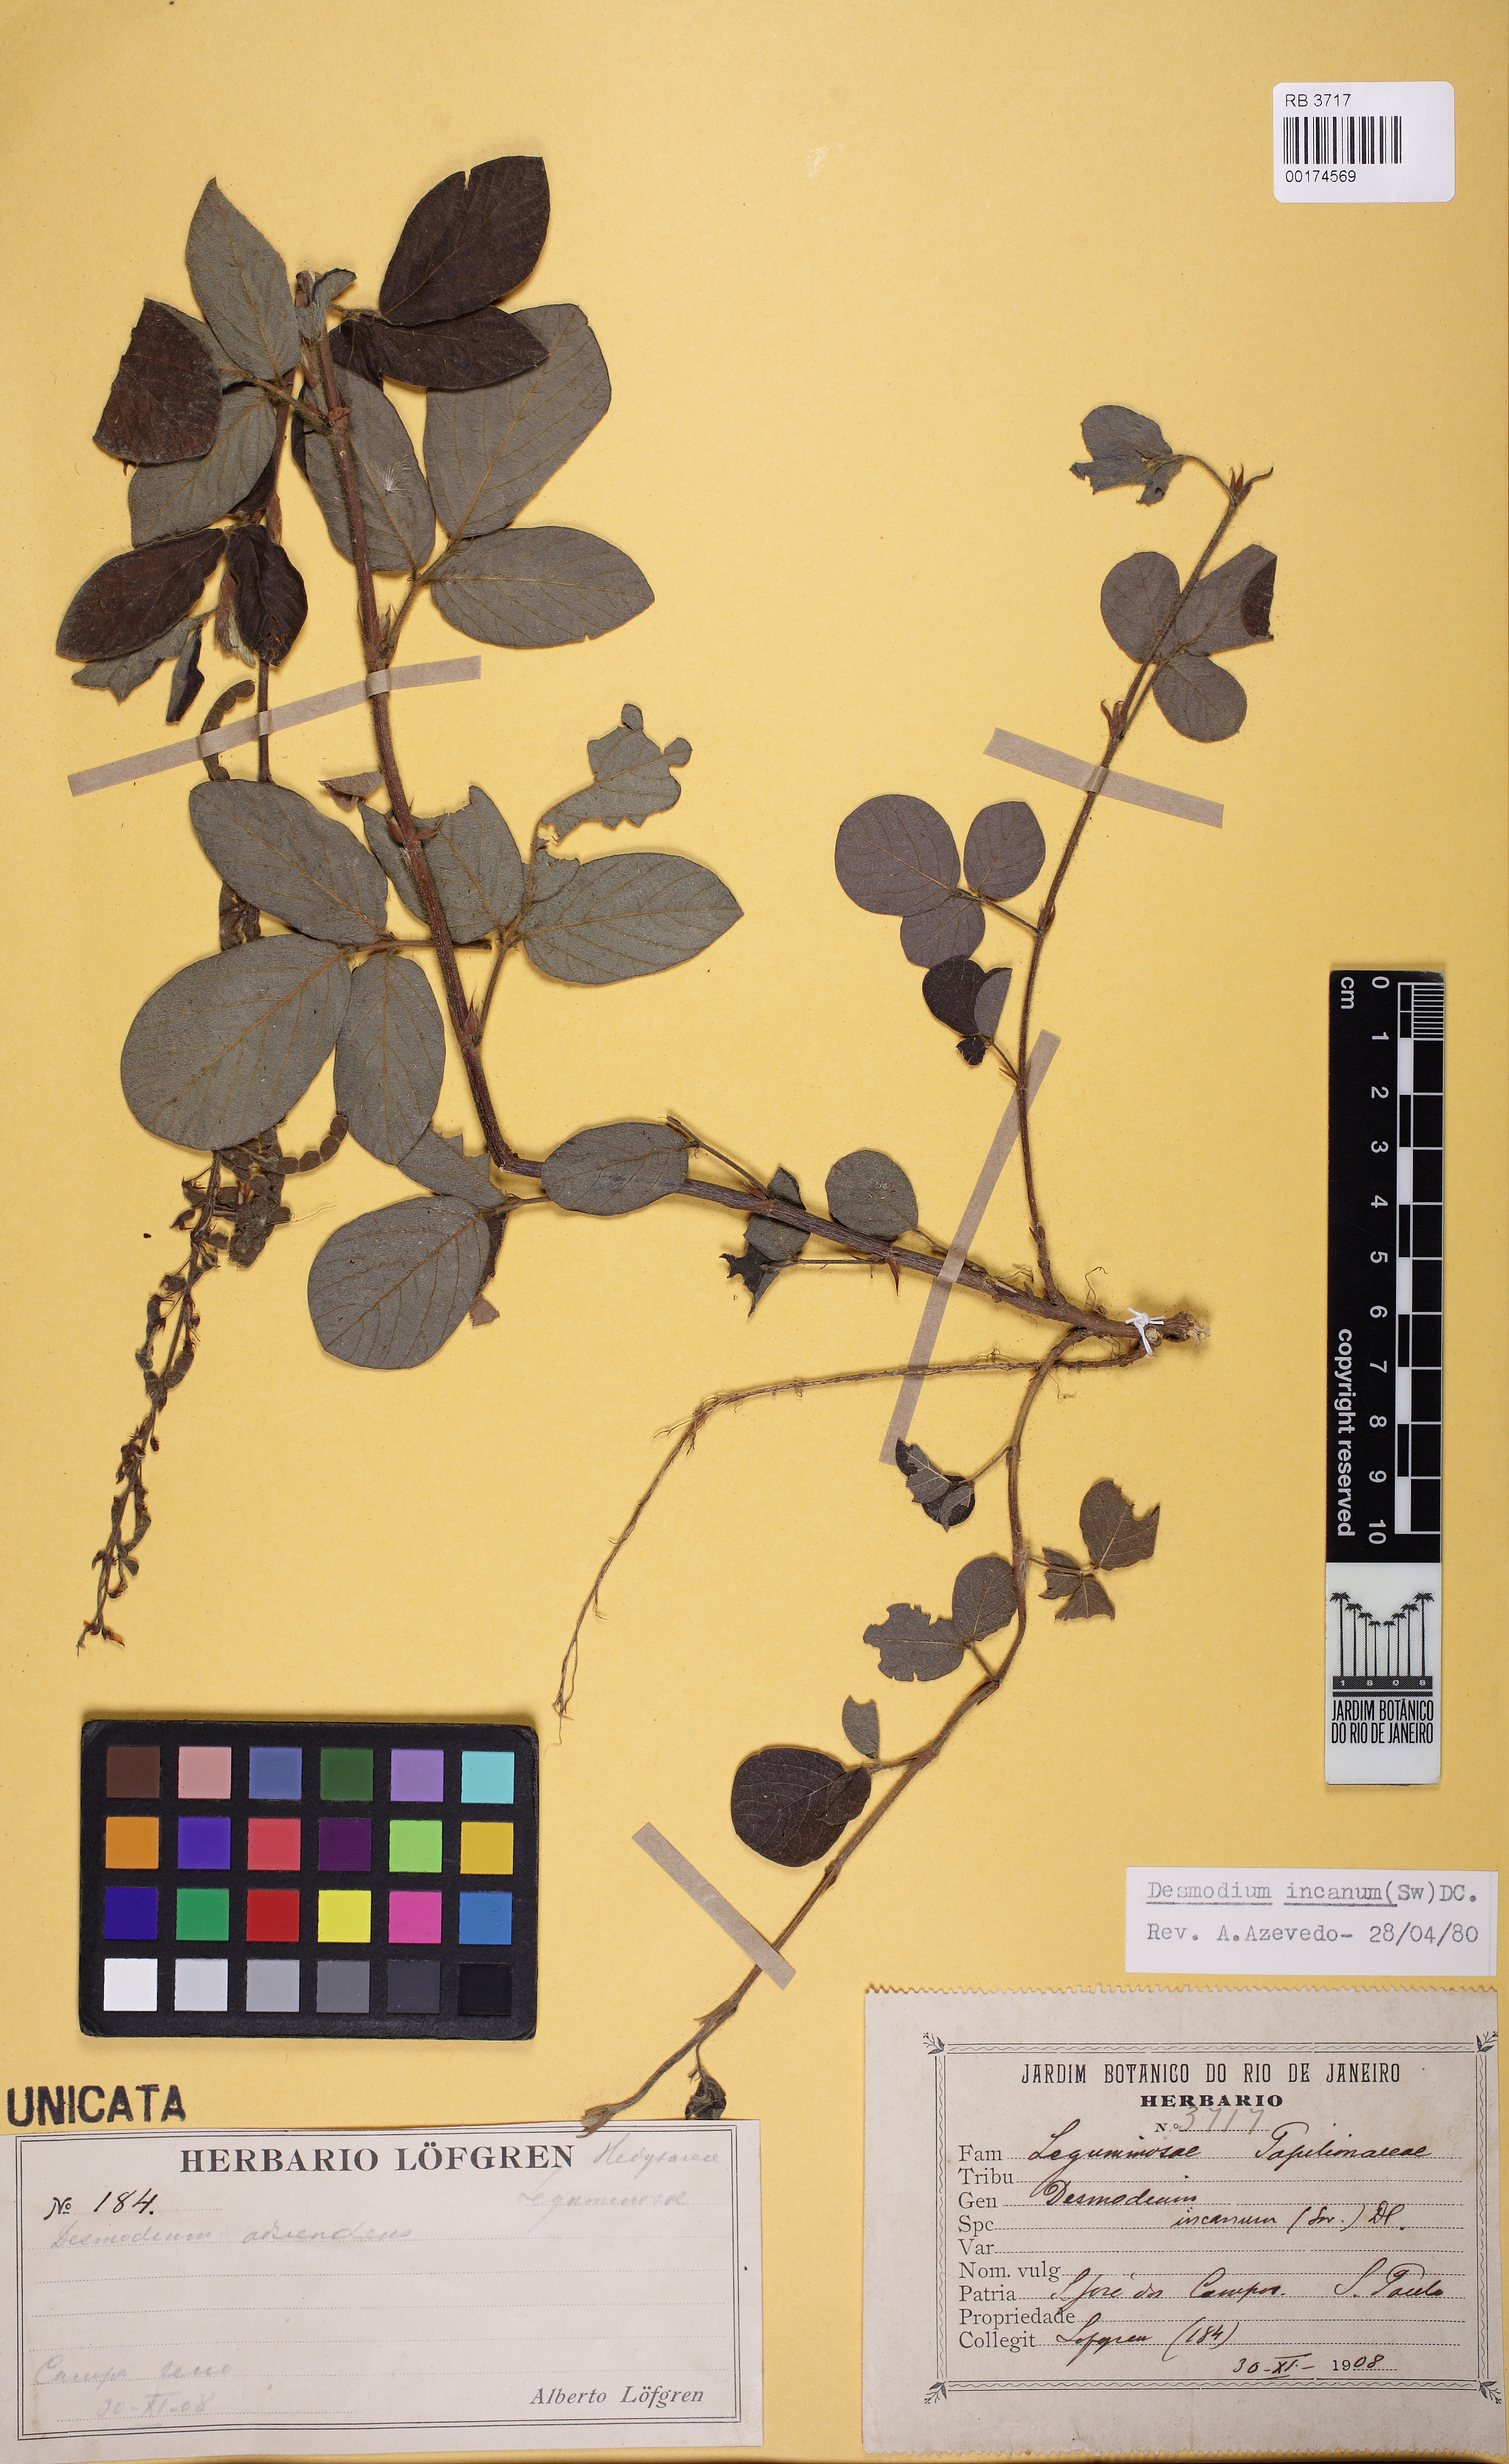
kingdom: Plantae
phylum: Tracheophyta
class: Magnoliopsida
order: Fabales
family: Fabaceae
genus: Desmodium
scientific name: Desmodium incanum
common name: Tickclover
